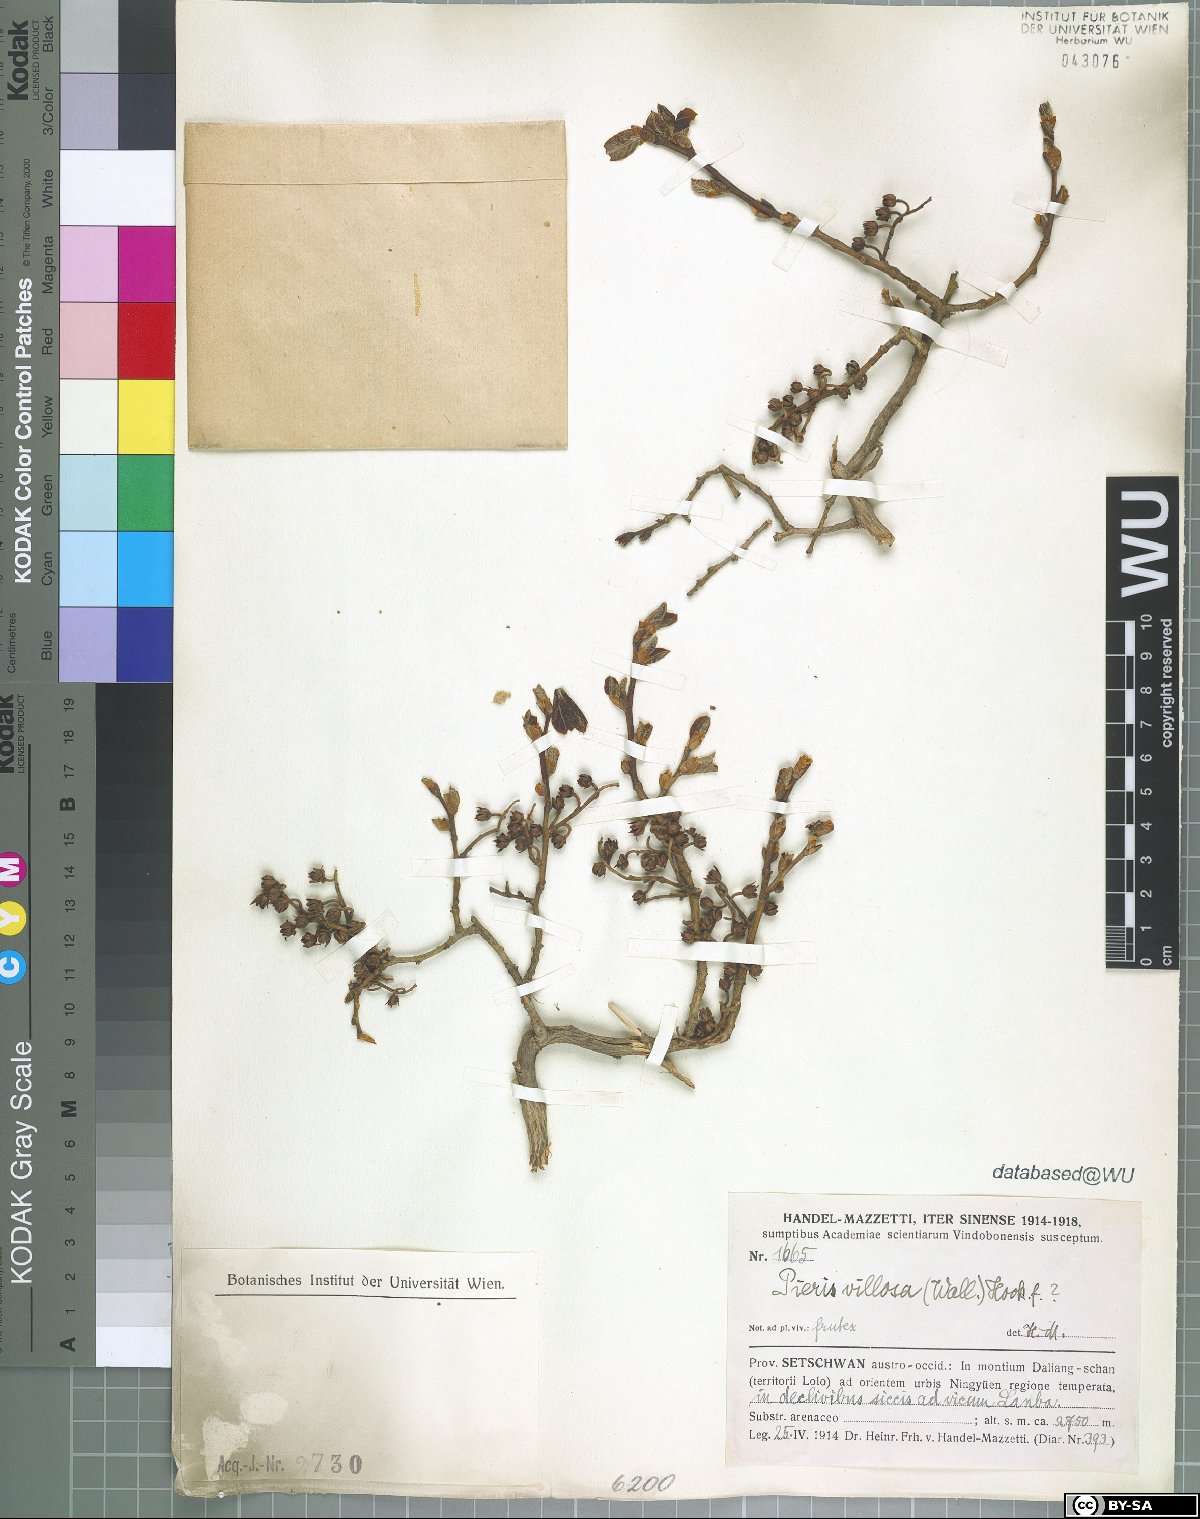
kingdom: Plantae
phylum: Tracheophyta
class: Magnoliopsida
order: Ericales
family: Ericaceae
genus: Lyonia
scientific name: Lyonia villosa
